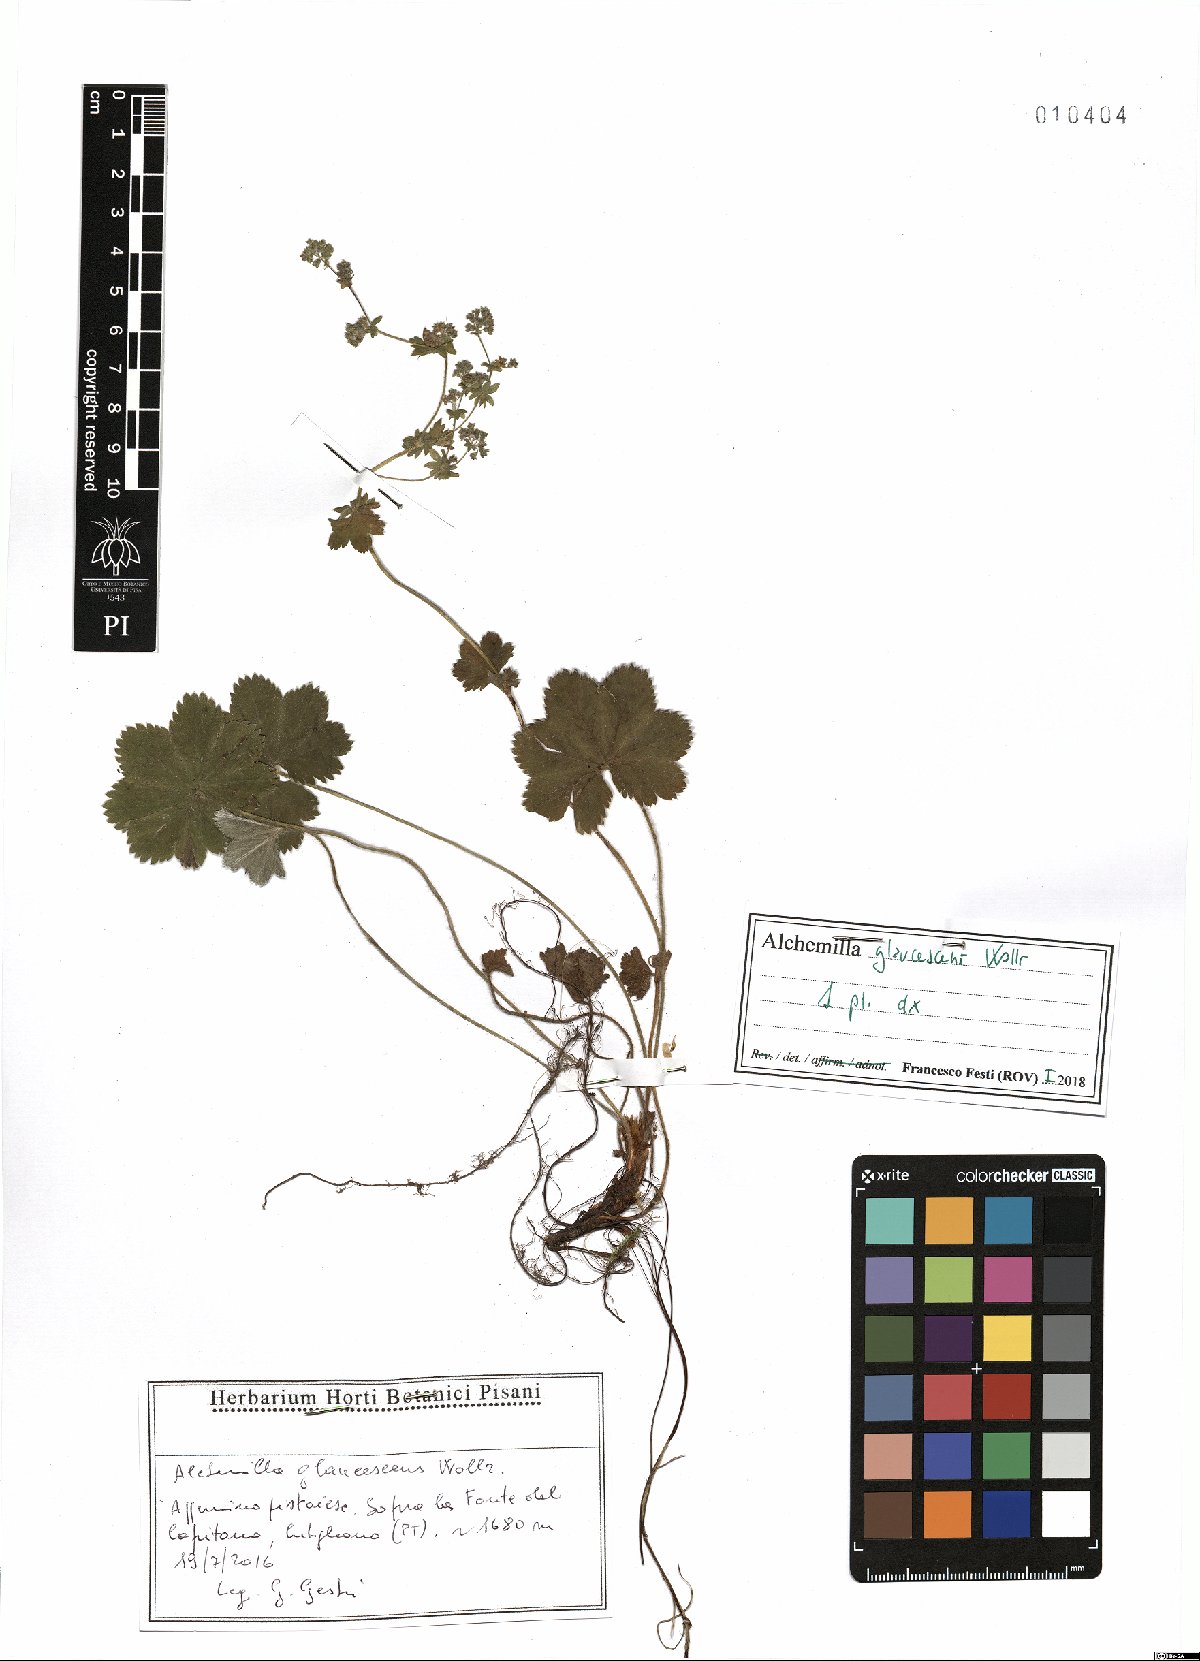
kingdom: Plantae
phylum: Tracheophyta
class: Magnoliopsida
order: Rosales
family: Rosaceae
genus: Alchemilla
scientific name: Alchemilla glaucescens
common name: Silky lady's mantle
